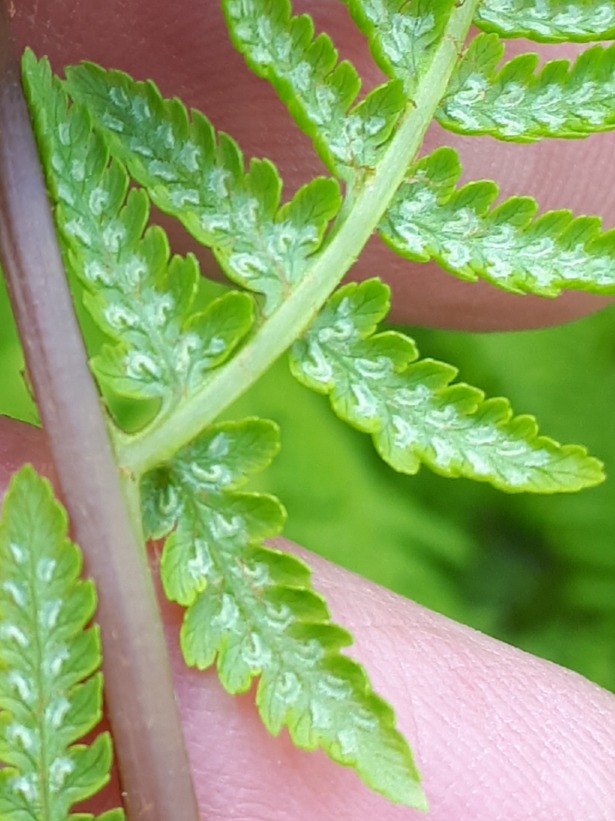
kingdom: Plantae
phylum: Tracheophyta
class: Polypodiopsida
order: Polypodiales
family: Athyriaceae
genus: Athyrium
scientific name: Athyrium filix-femina
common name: Fjerbregne
